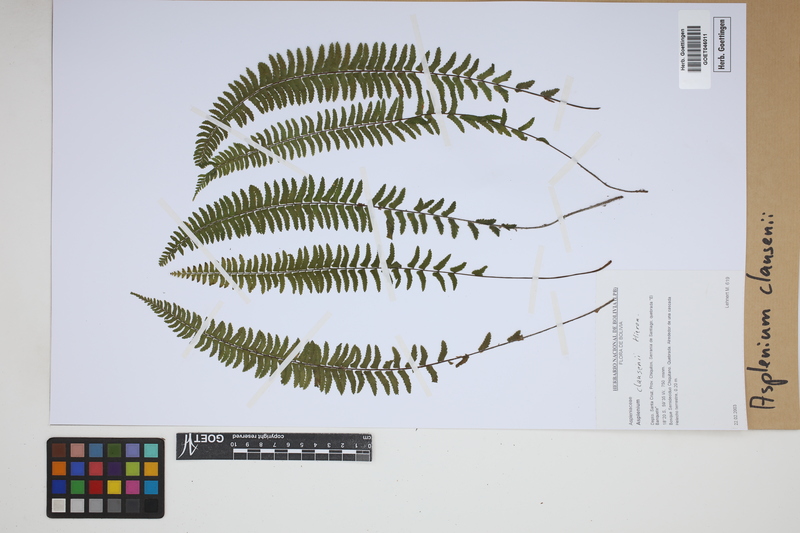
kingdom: Plantae
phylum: Tracheophyta
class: Polypodiopsida
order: Polypodiales
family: Aspleniaceae
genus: Asplenium
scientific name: Asplenium claussenii
